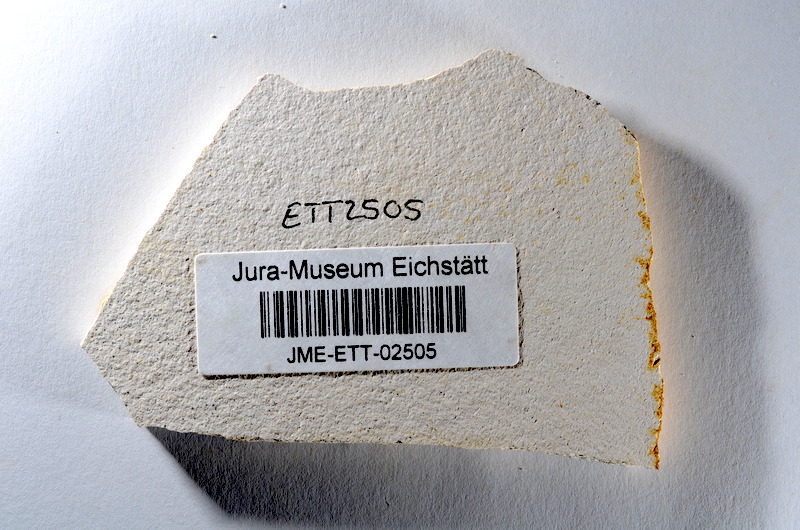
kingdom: Animalia
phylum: Chordata
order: Salmoniformes
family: Orthogonikleithridae
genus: Orthogonikleithrus
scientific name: Orthogonikleithrus hoelli
